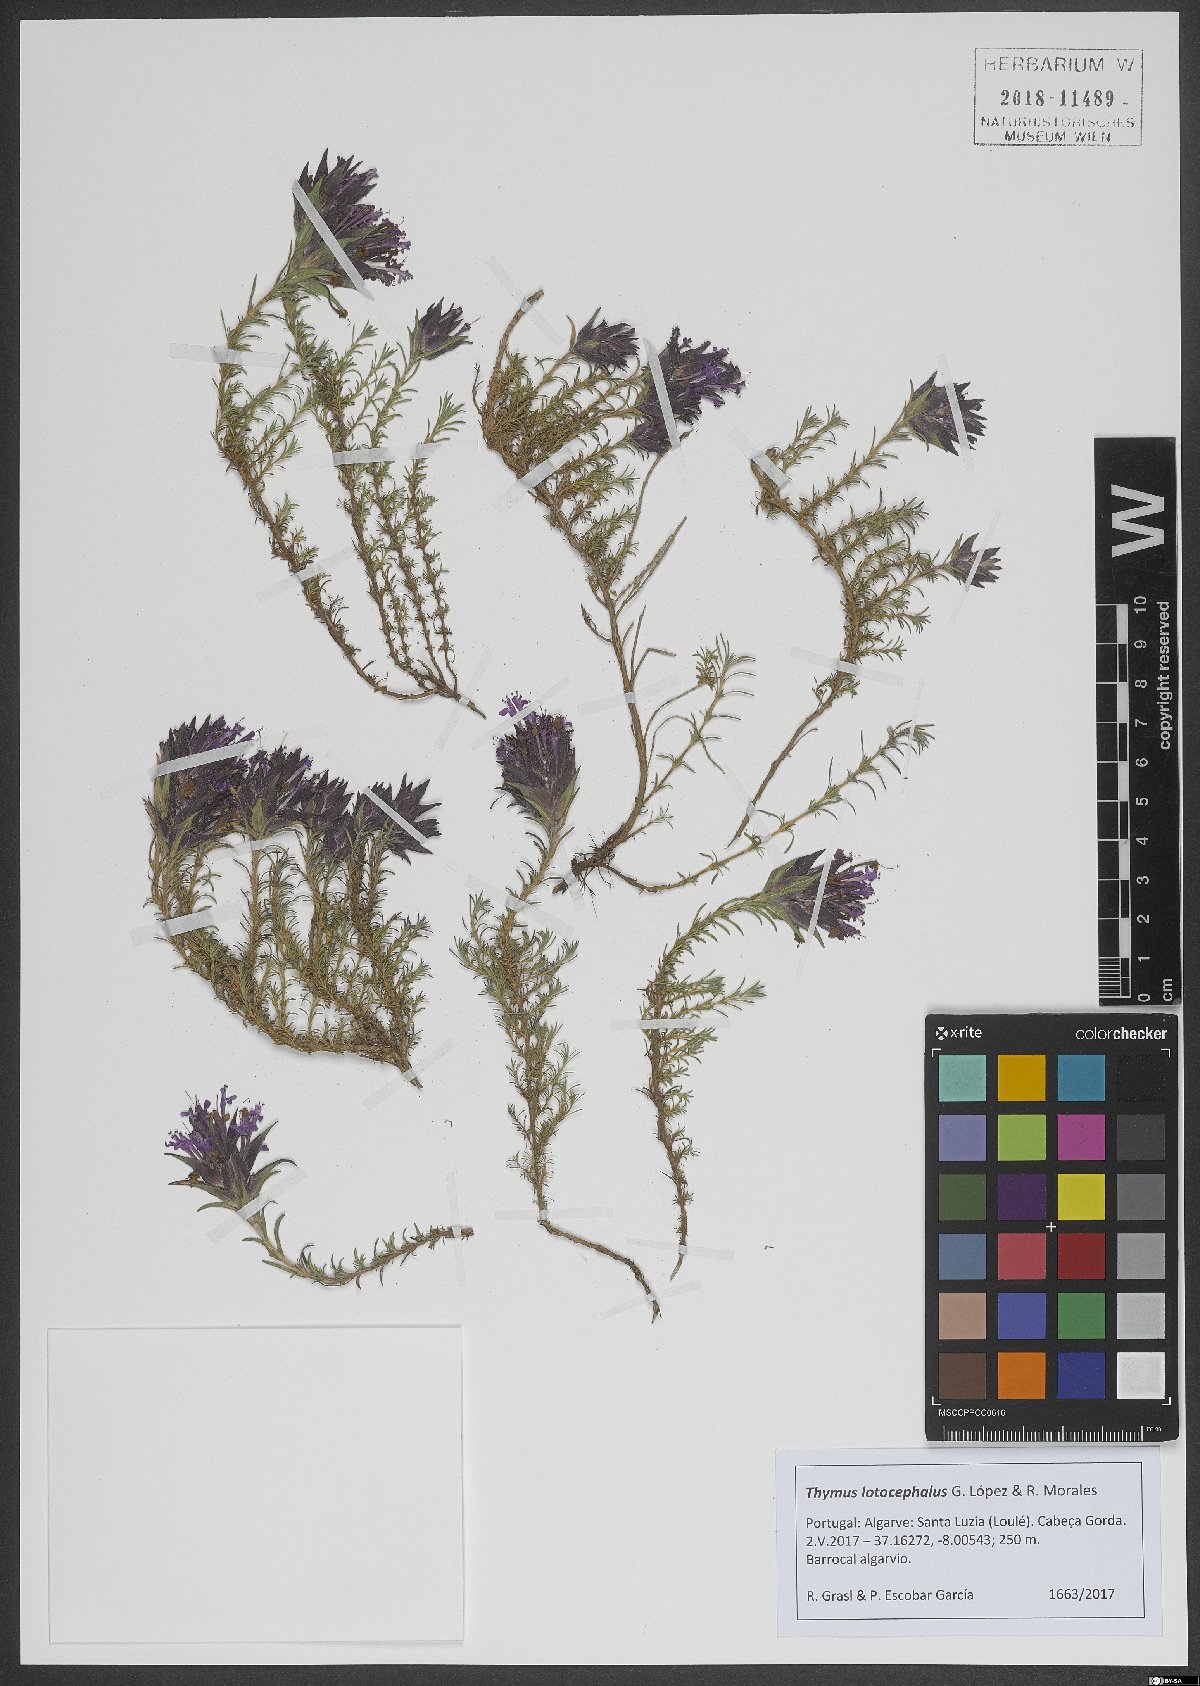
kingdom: Plantae
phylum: Tracheophyta
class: Magnoliopsida
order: Lamiales
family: Lamiaceae
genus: Thymus
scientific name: Thymus lotocephalus
